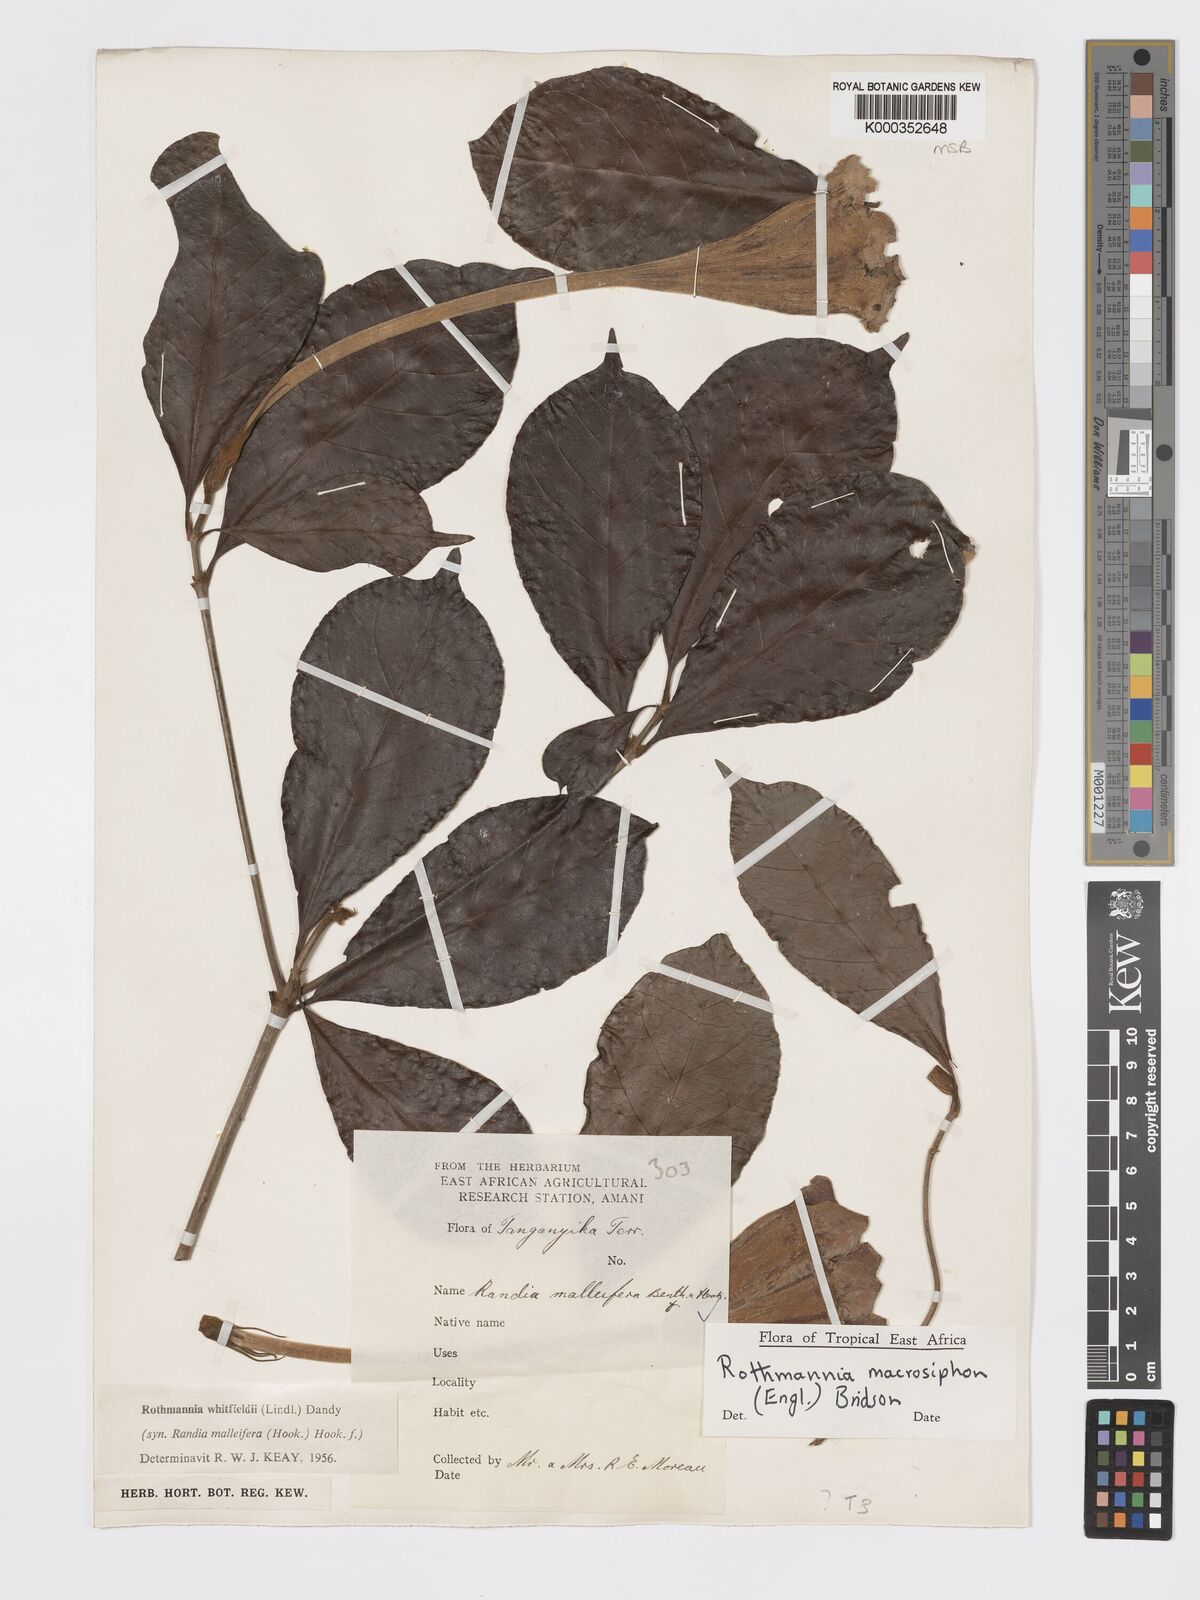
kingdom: Plantae
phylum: Tracheophyta
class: Magnoliopsida
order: Gentianales
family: Rubiaceae
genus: Rothmannia
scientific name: Rothmannia macrosiphon
